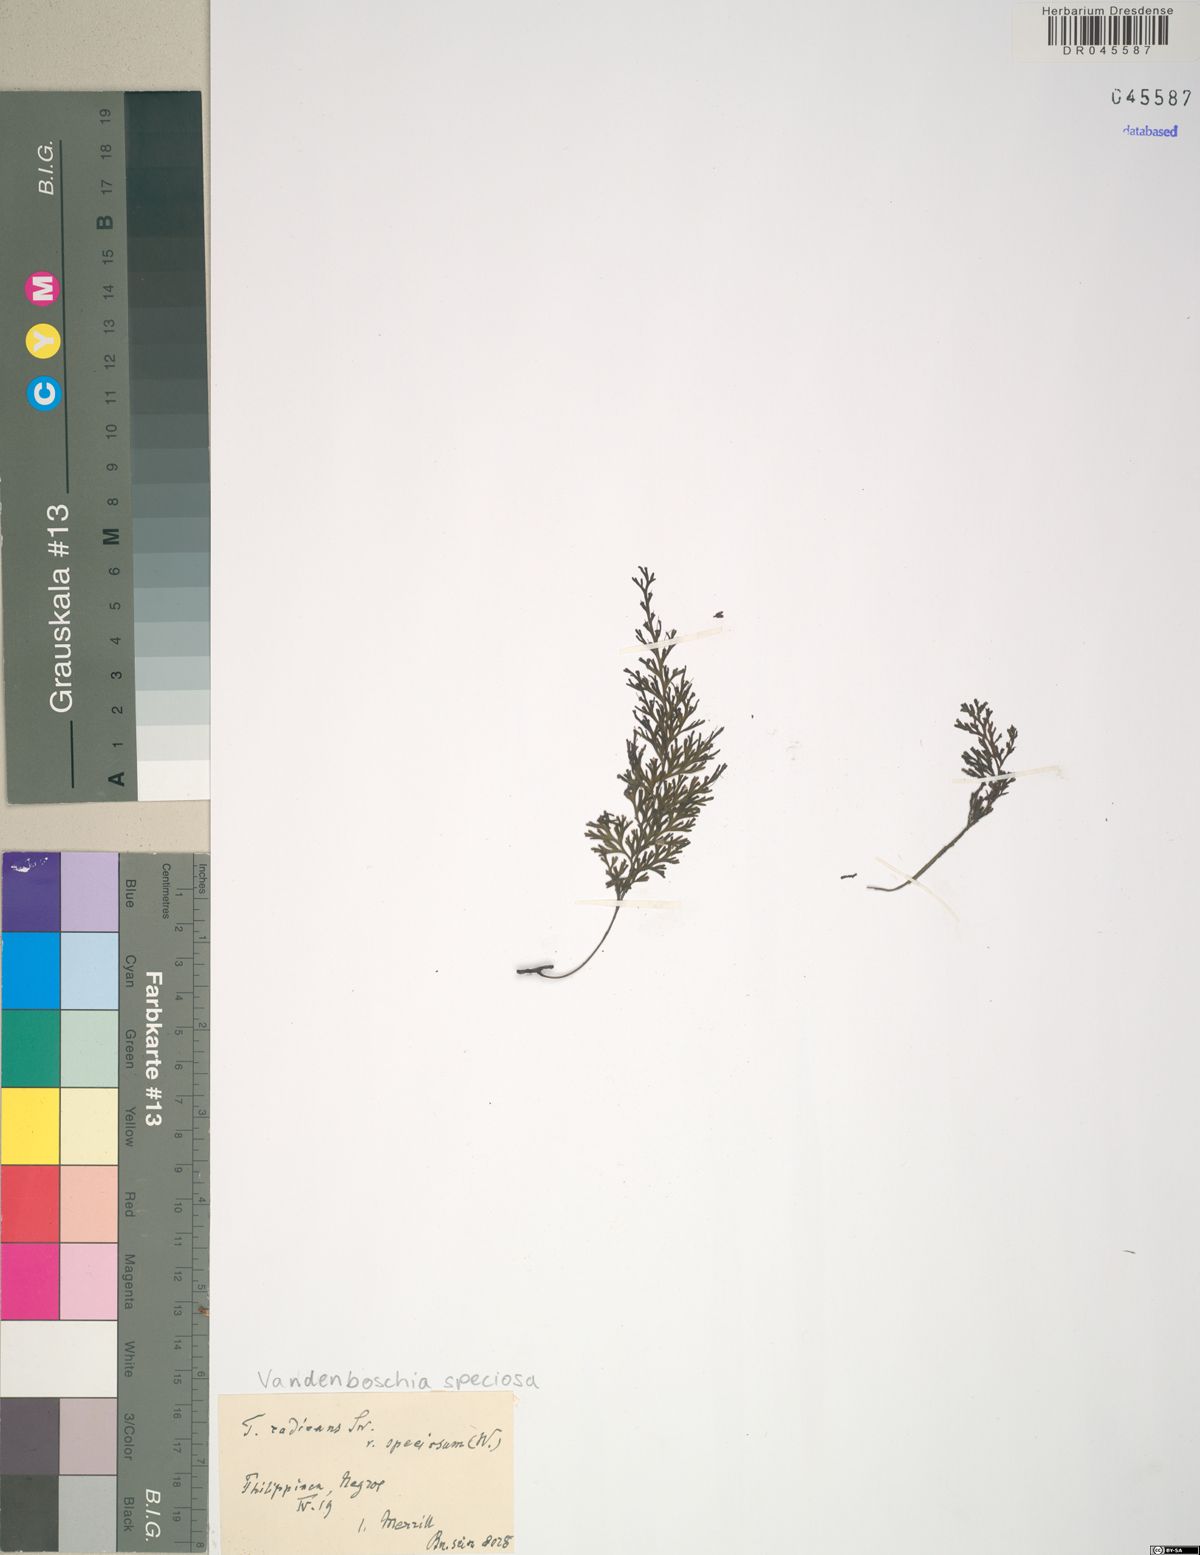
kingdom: Plantae
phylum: Tracheophyta
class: Polypodiopsida
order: Hymenophyllales
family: Hymenophyllaceae
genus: Vandenboschia
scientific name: Vandenboschia speciosa
